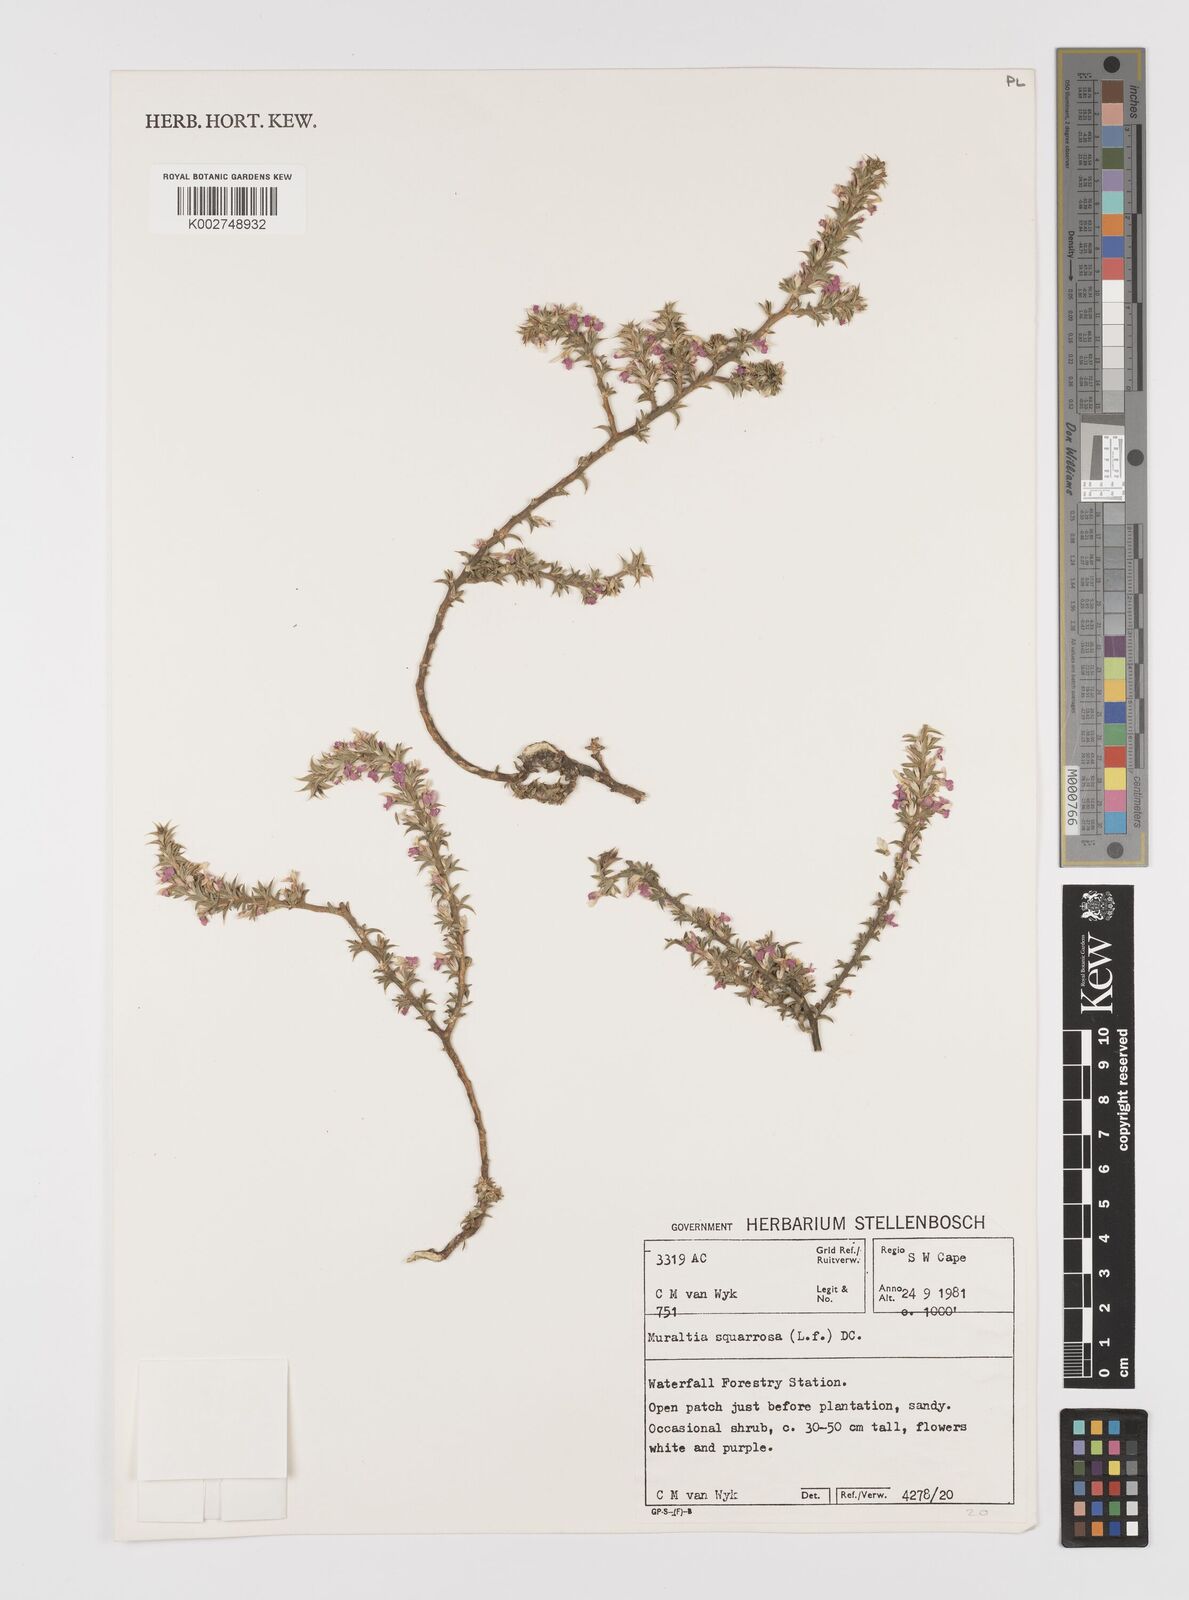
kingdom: Plantae
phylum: Tracheophyta
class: Magnoliopsida
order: Fabales
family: Polygalaceae
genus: Muraltia
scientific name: Muraltia squarrosa
